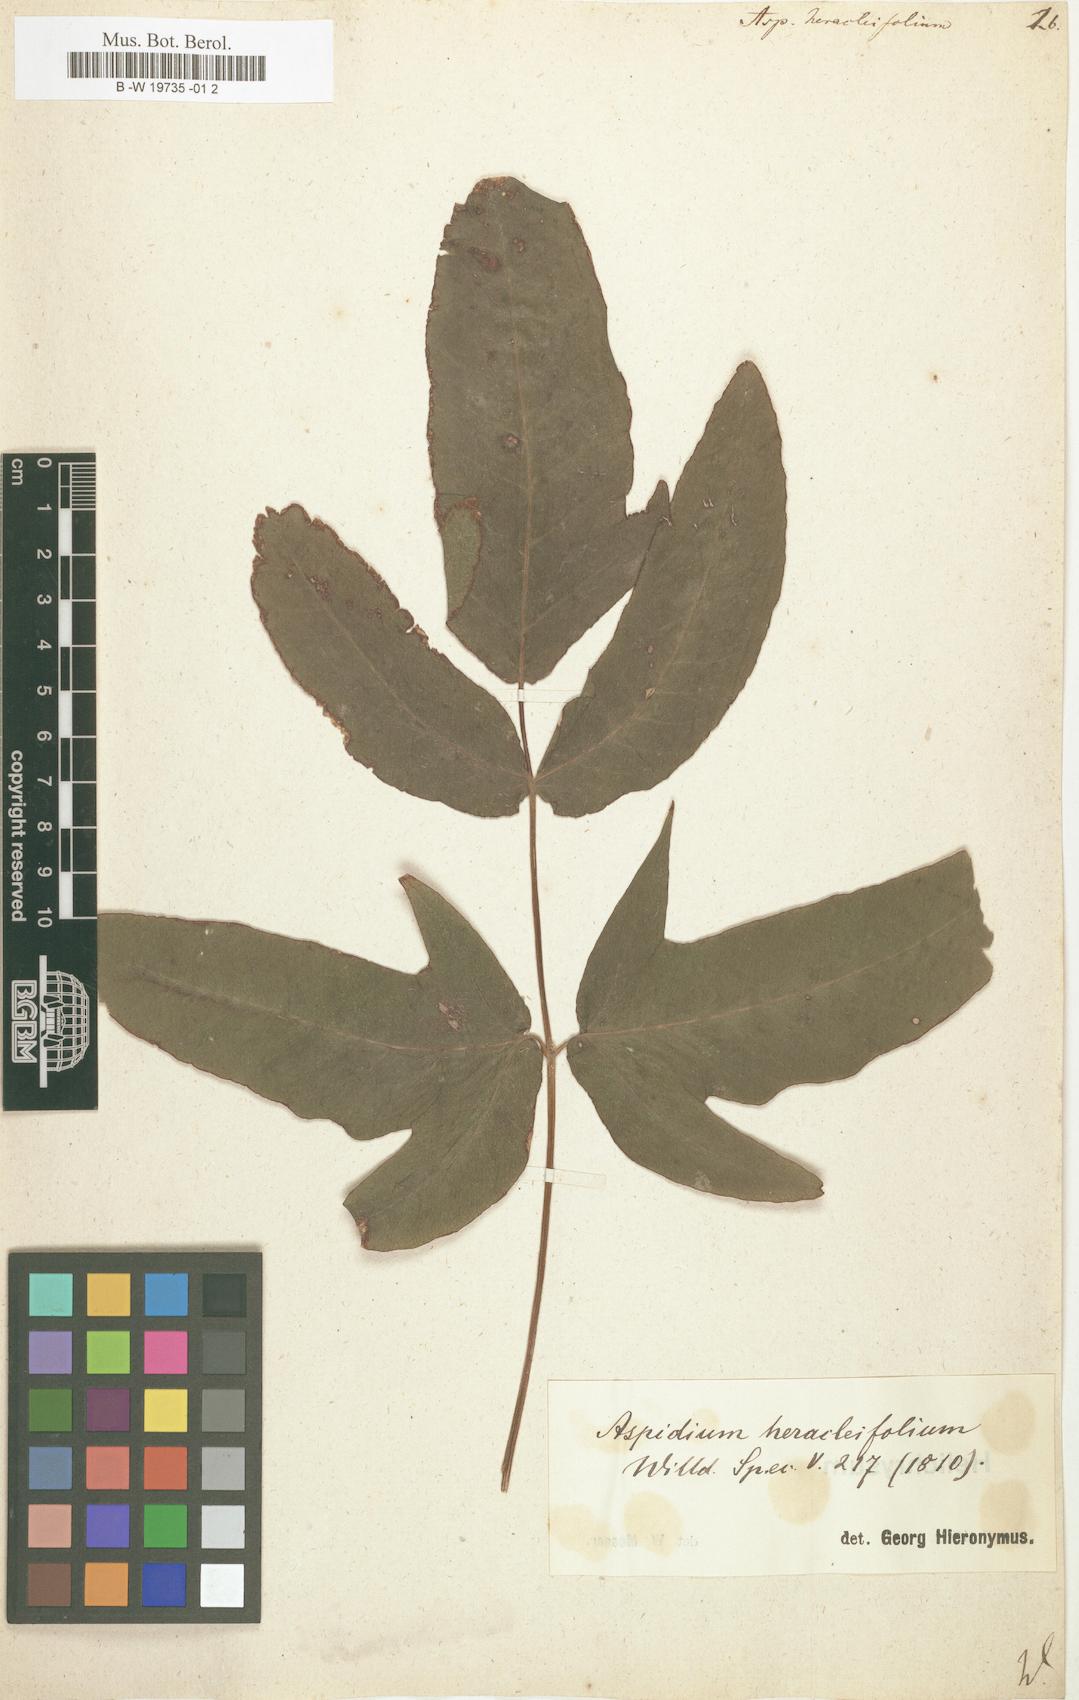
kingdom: Plantae
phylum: Tracheophyta
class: Polypodiopsida
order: Polypodiales
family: Tectariaceae
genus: Tectaria
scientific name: Tectaria
